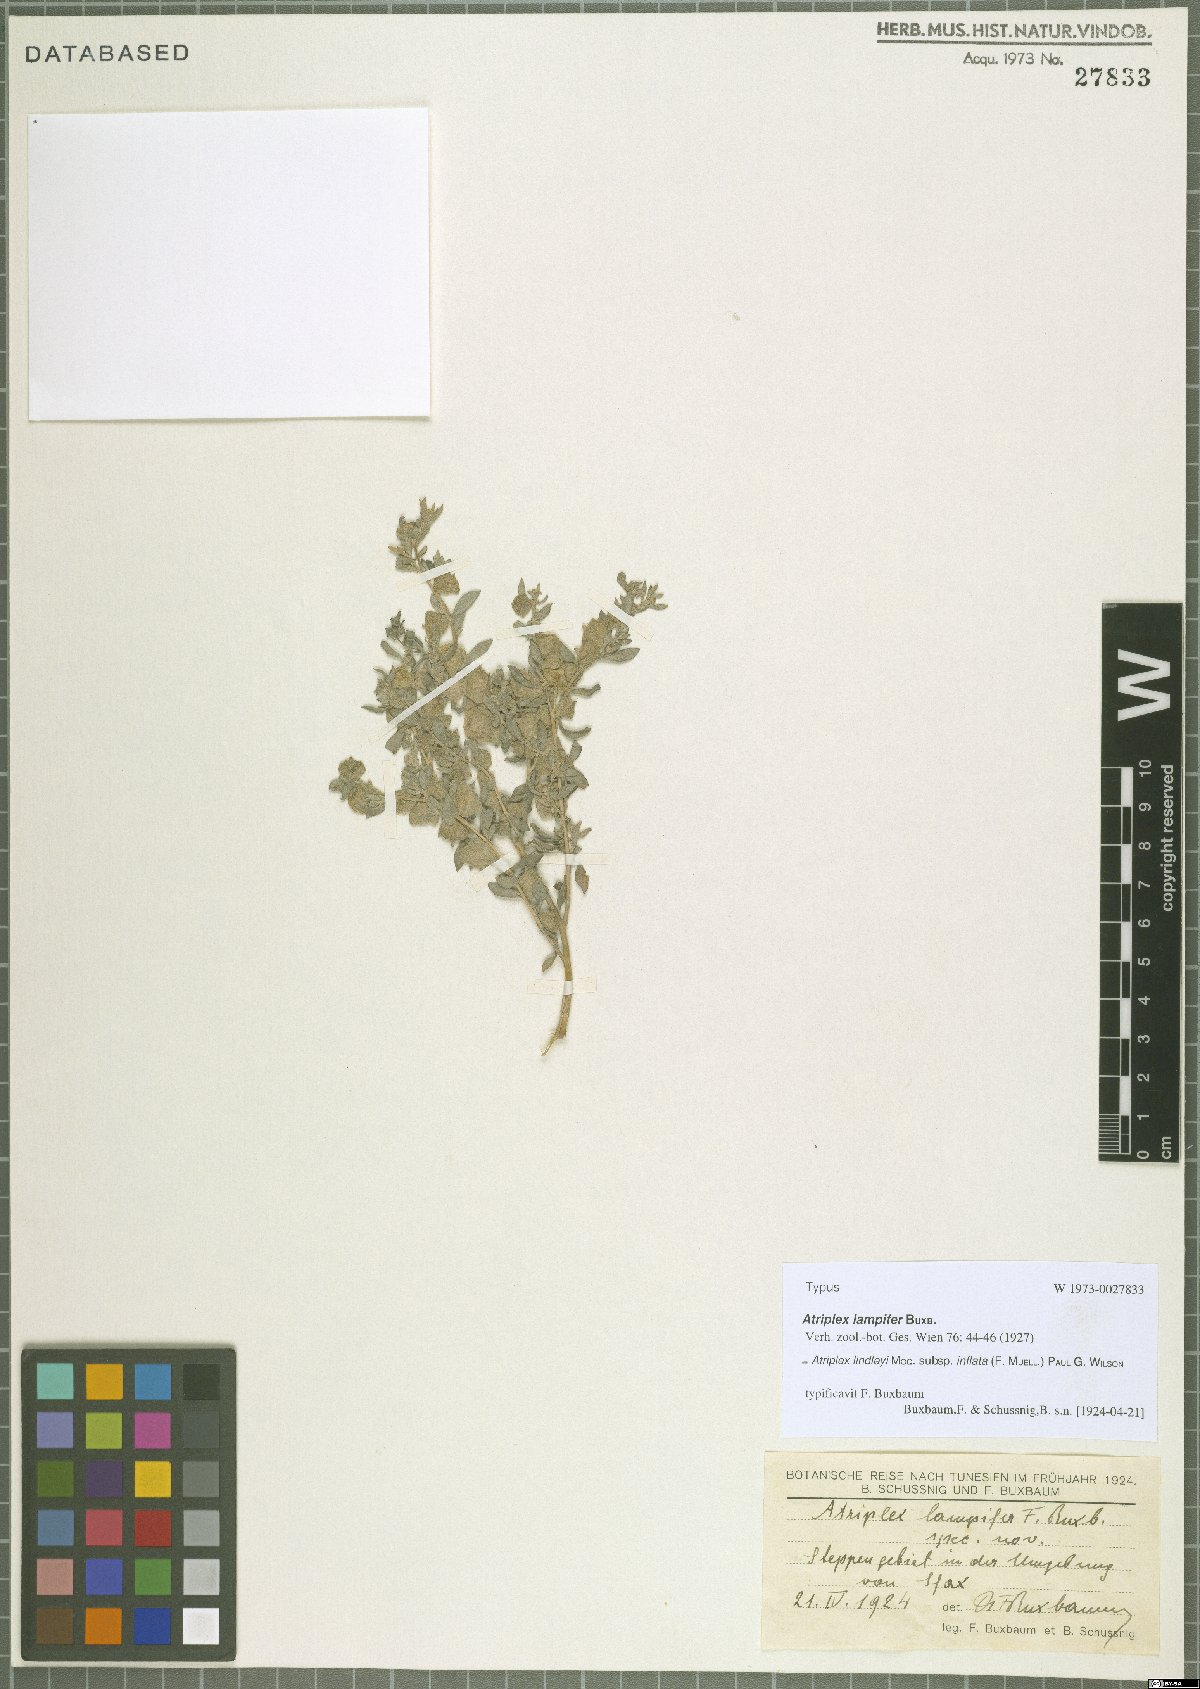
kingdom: Plantae
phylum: Tracheophyta
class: Magnoliopsida
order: Caryophyllales
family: Amaranthaceae
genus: Atriplex
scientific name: Atriplex lindleyi
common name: Lindley's saltbush
